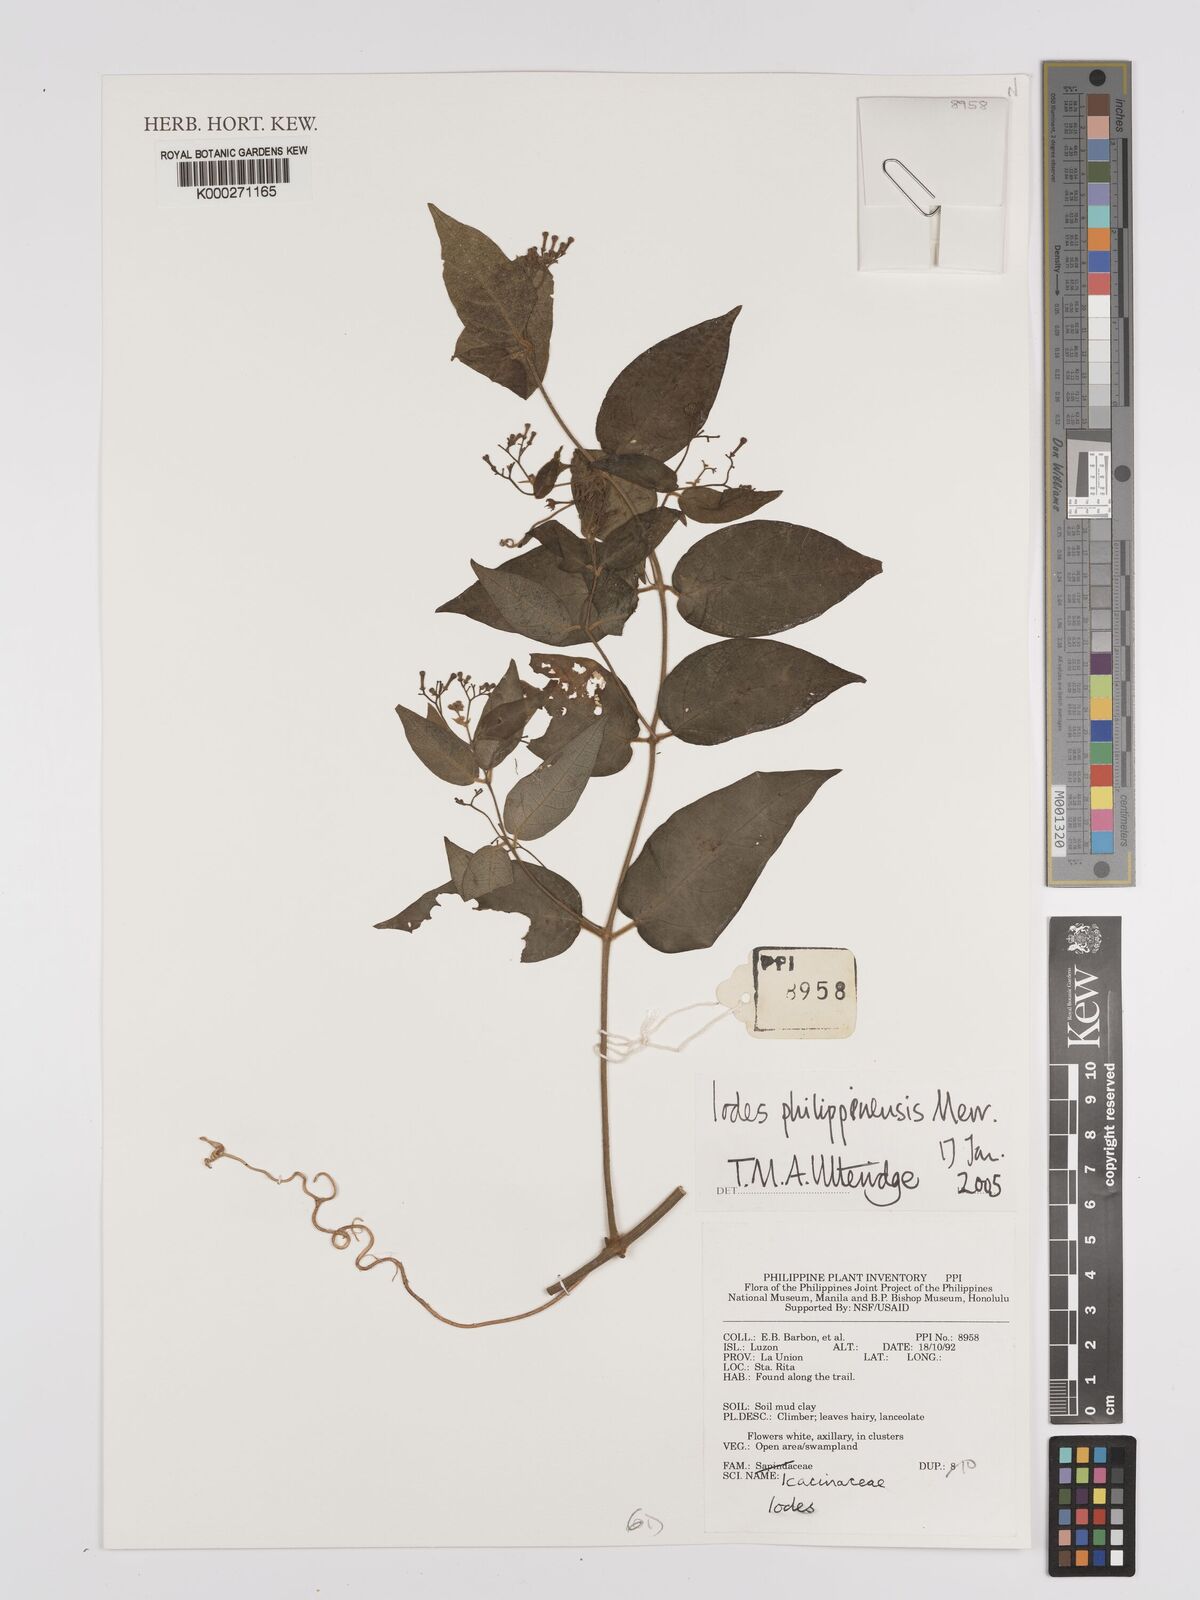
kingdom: Plantae
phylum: Tracheophyta
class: Magnoliopsida
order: Icacinales
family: Icacinaceae
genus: Iodes
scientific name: Iodes philippinensis
